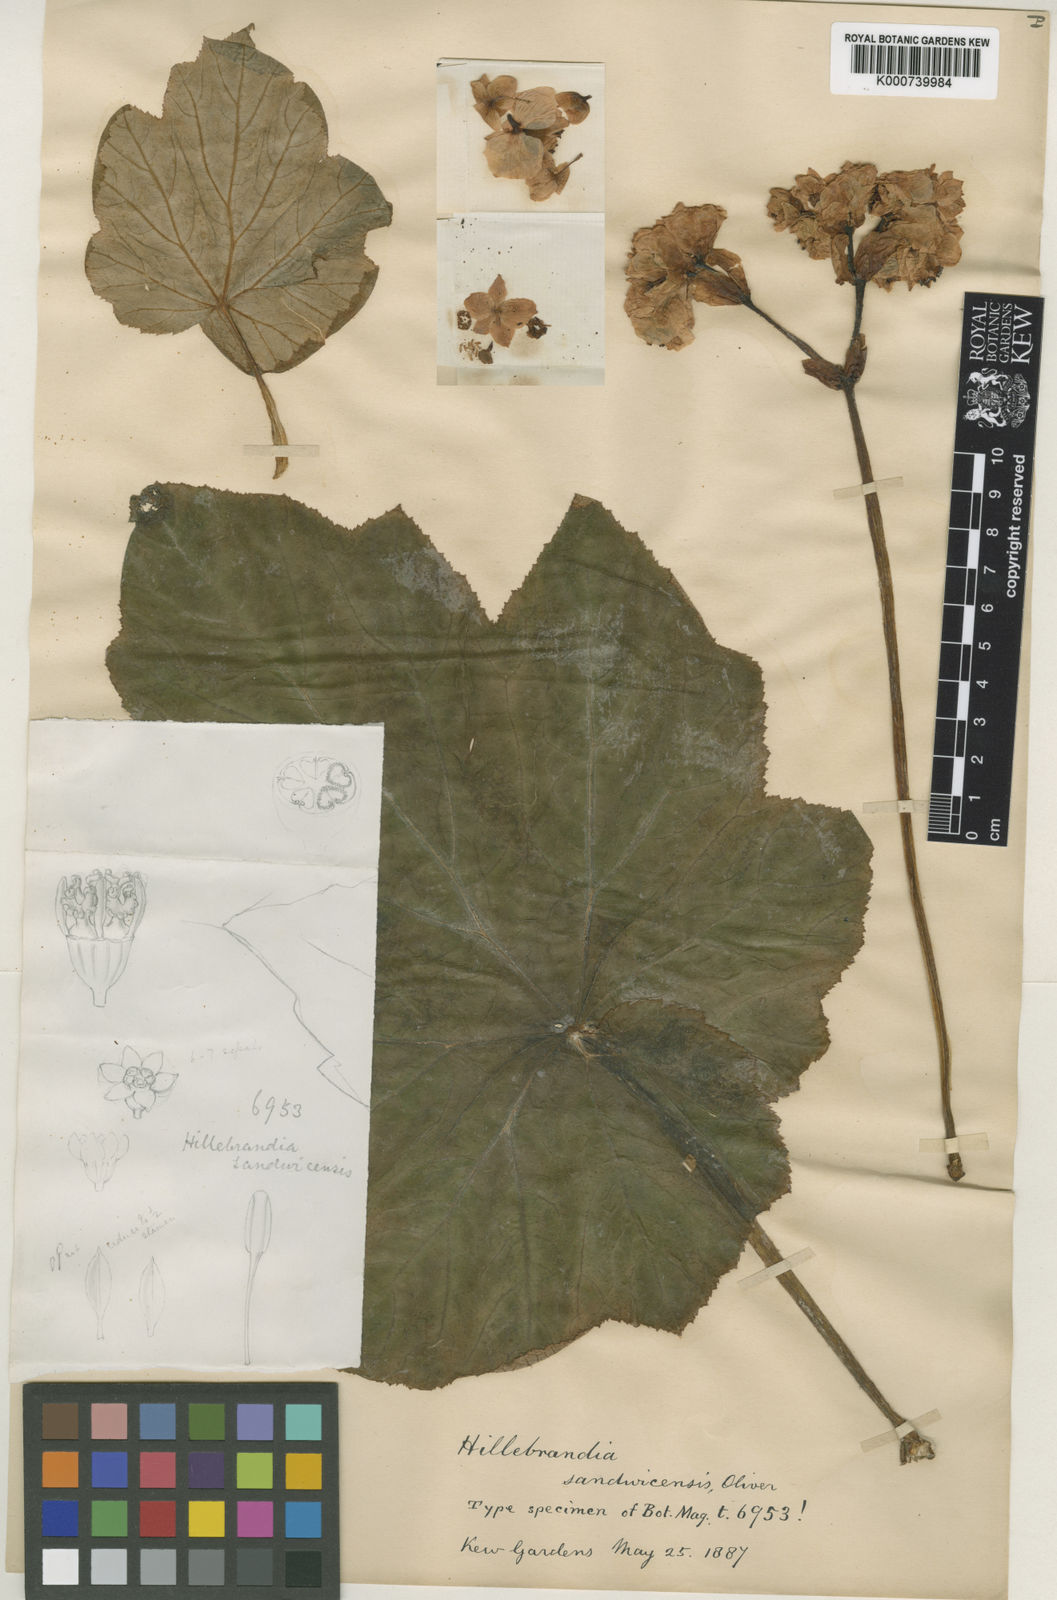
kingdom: Plantae
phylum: Tracheophyta
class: Magnoliopsida
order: Cucurbitales
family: Begoniaceae
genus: Hillebrandia
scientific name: Hillebrandia sandwicensis
